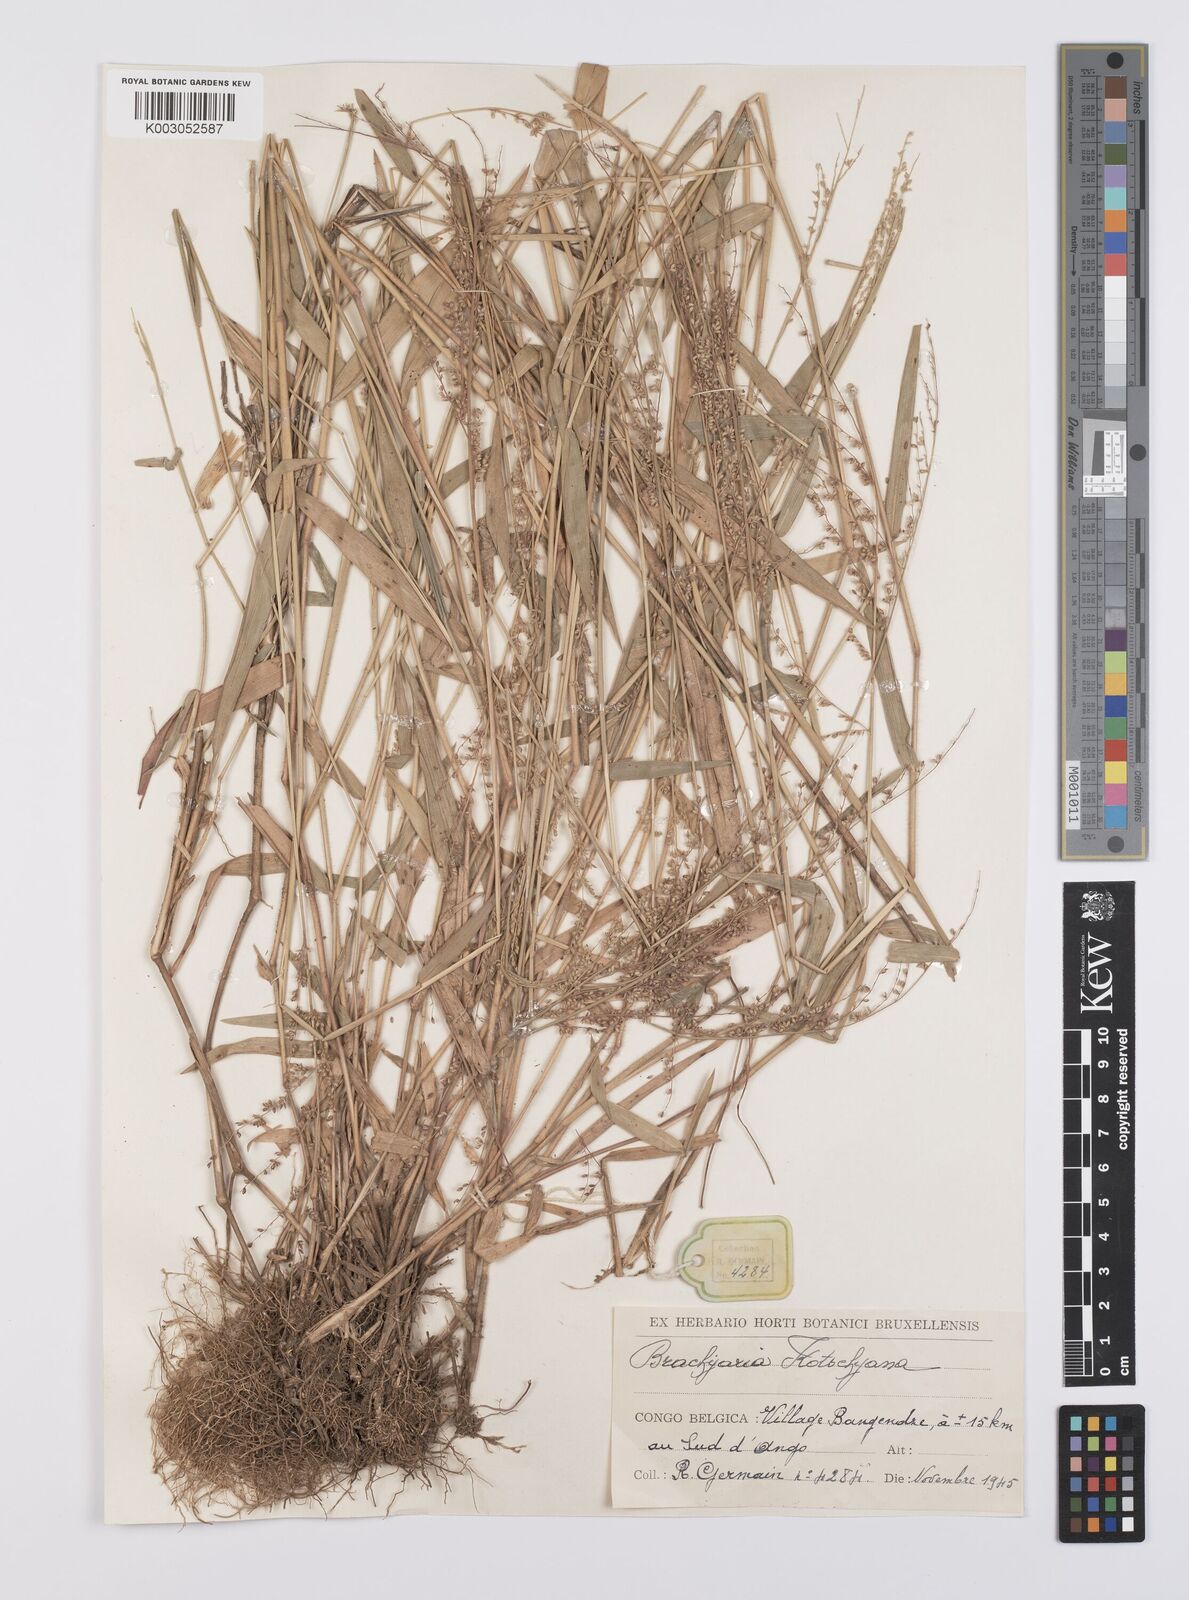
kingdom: Plantae
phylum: Tracheophyta
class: Liliopsida
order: Poales
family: Poaceae
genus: Urochloa
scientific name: Urochloa comata
